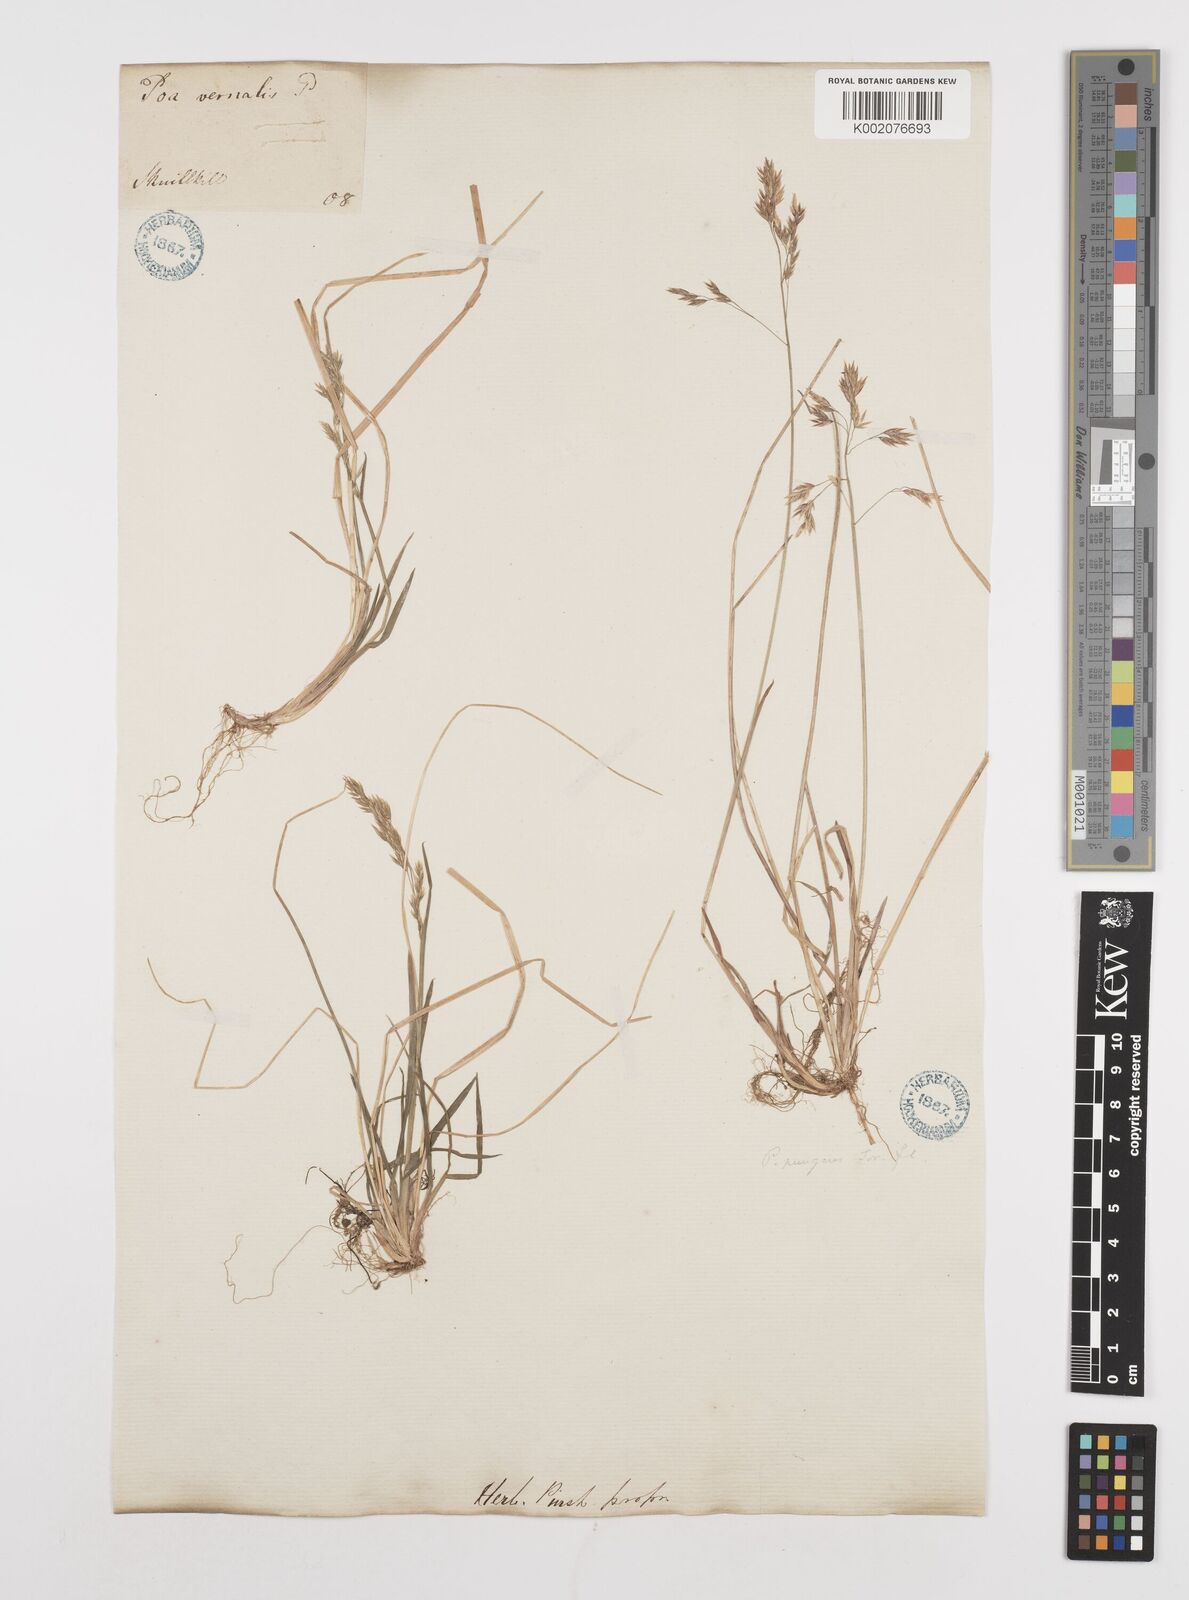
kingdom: Plantae
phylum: Tracheophyta
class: Liliopsida
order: Poales
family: Poaceae
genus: Poa
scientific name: Poa
